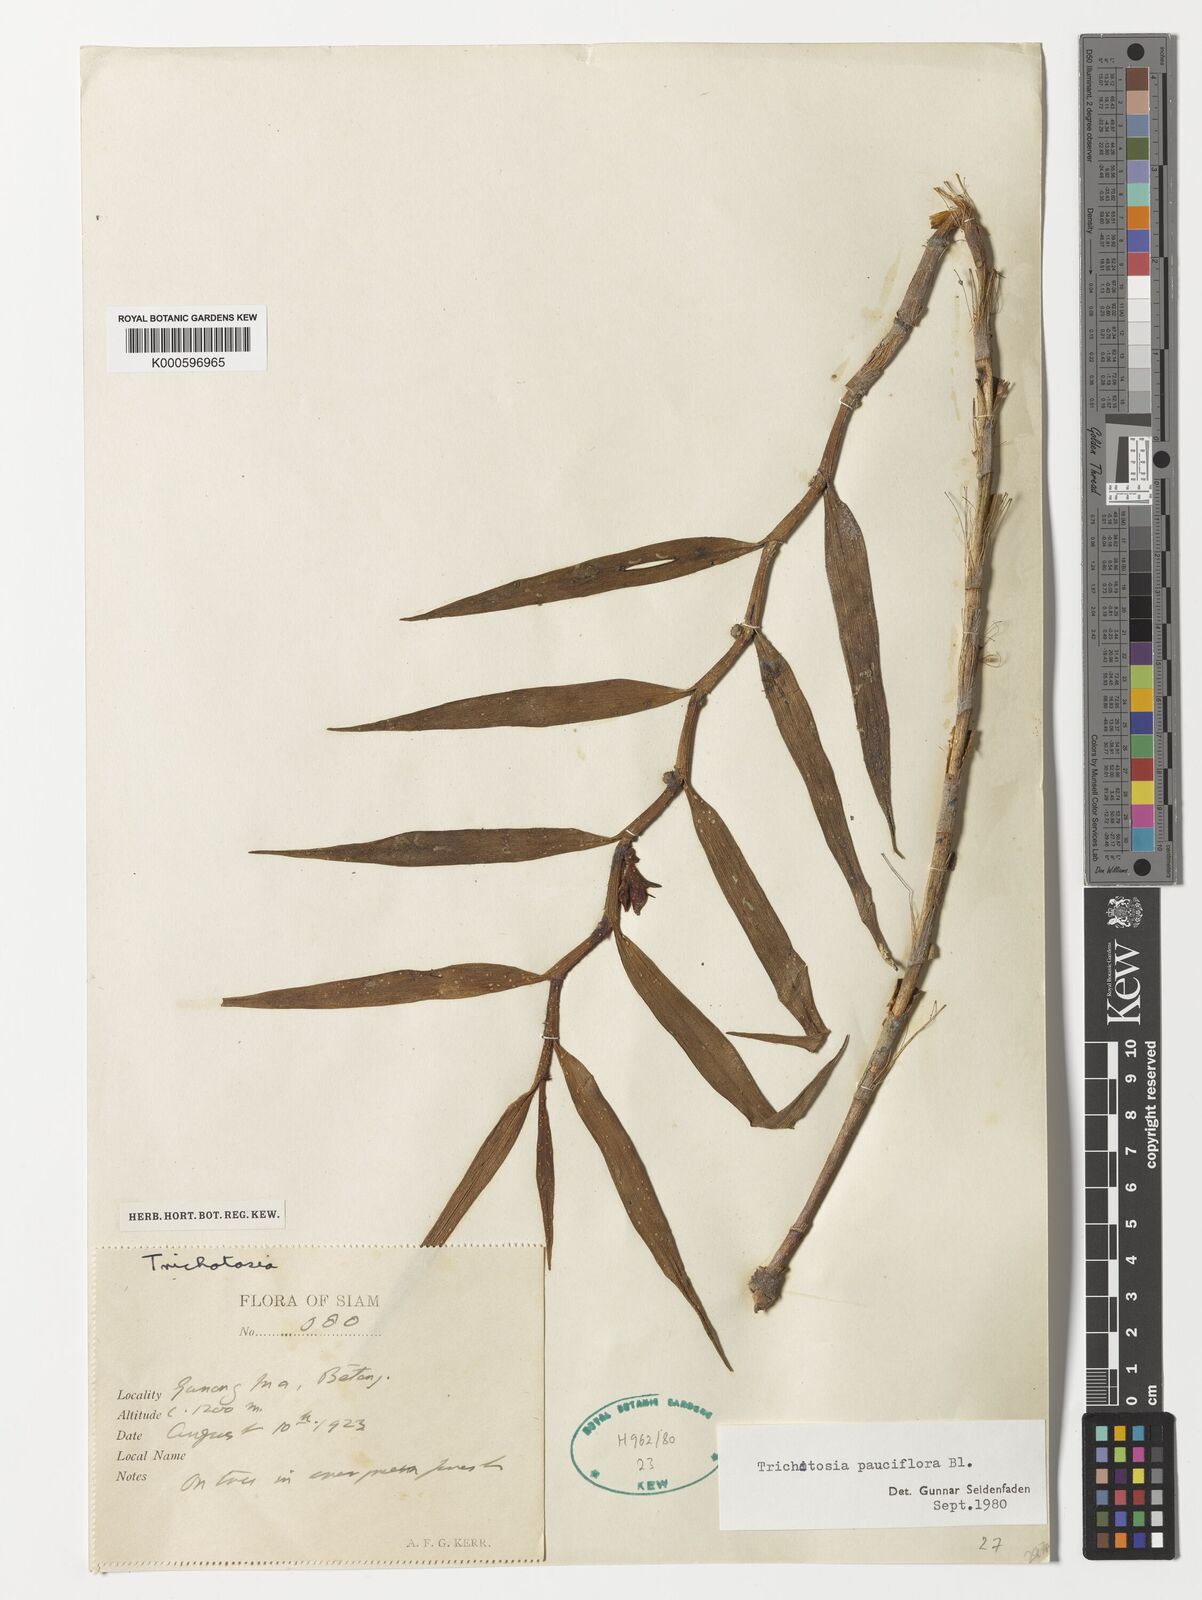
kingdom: Plantae
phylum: Tracheophyta
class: Liliopsida
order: Asparagales
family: Orchidaceae
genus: Trichotosia
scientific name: Trichotosia pauciflora
